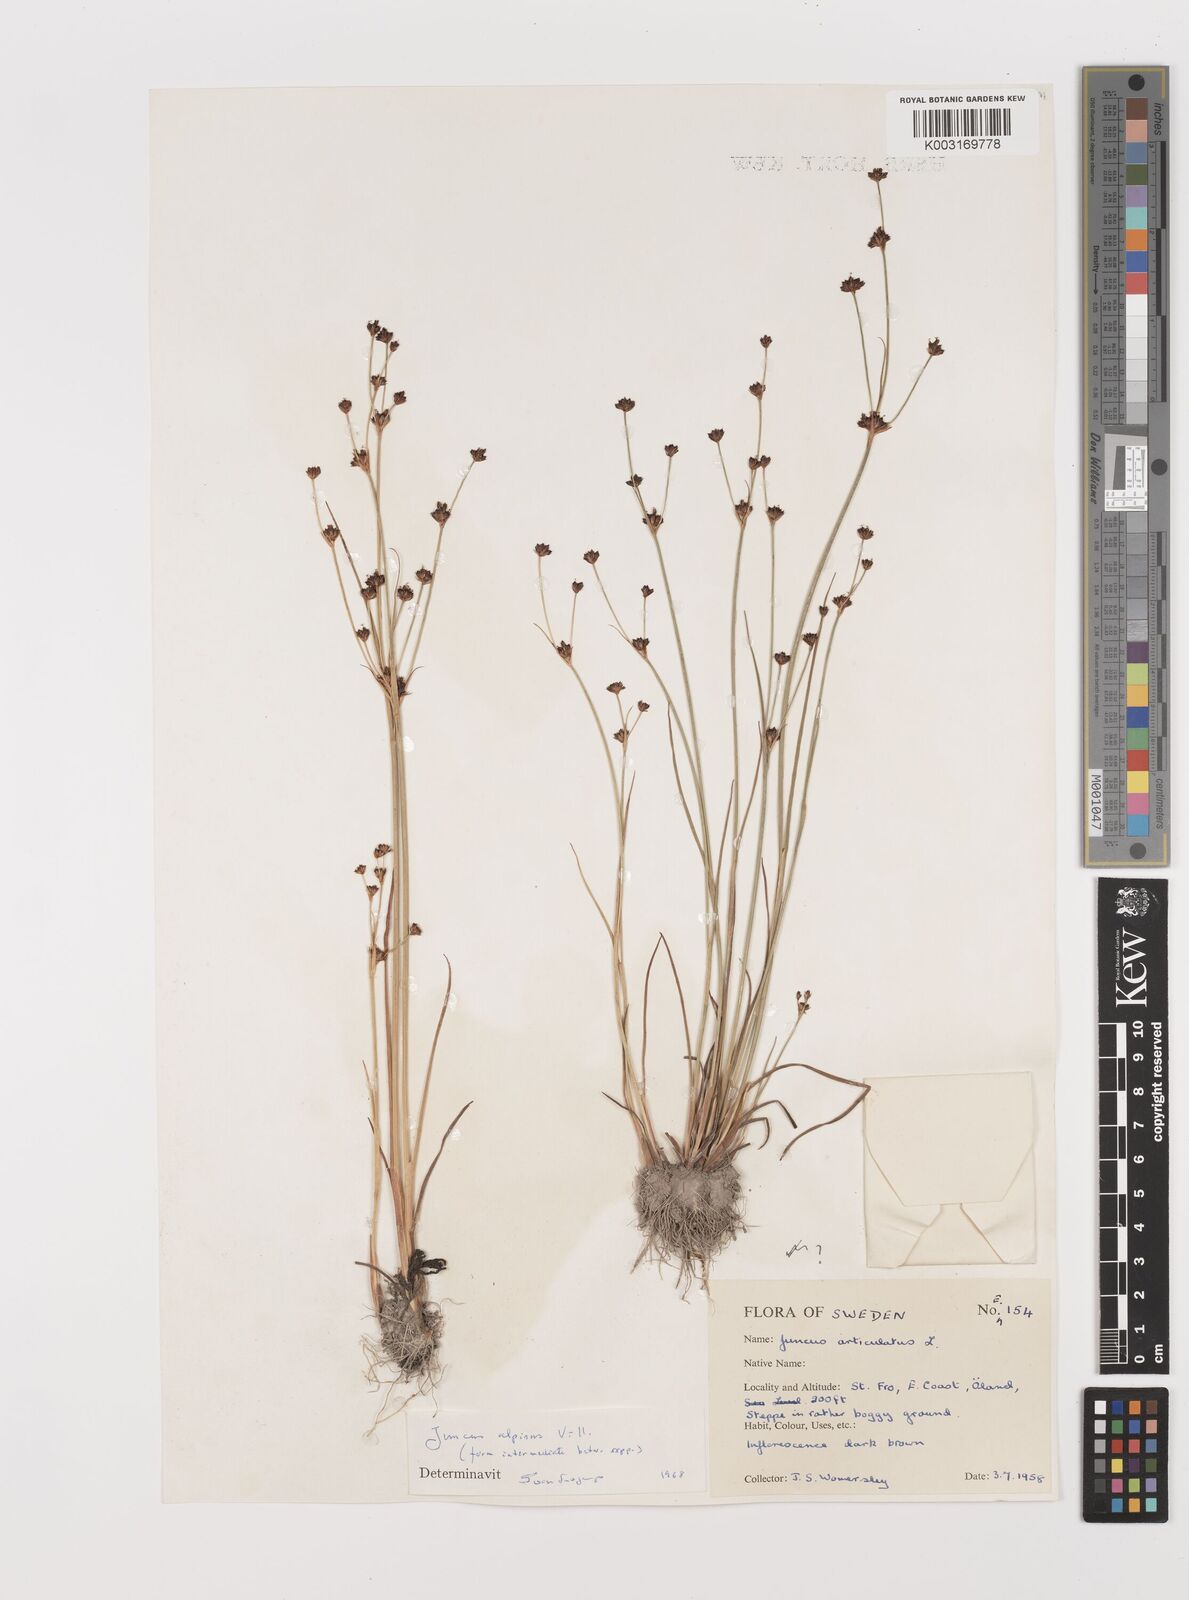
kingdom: Plantae
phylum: Tracheophyta
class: Liliopsida
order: Poales
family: Juncaceae
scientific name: Juncaceae
